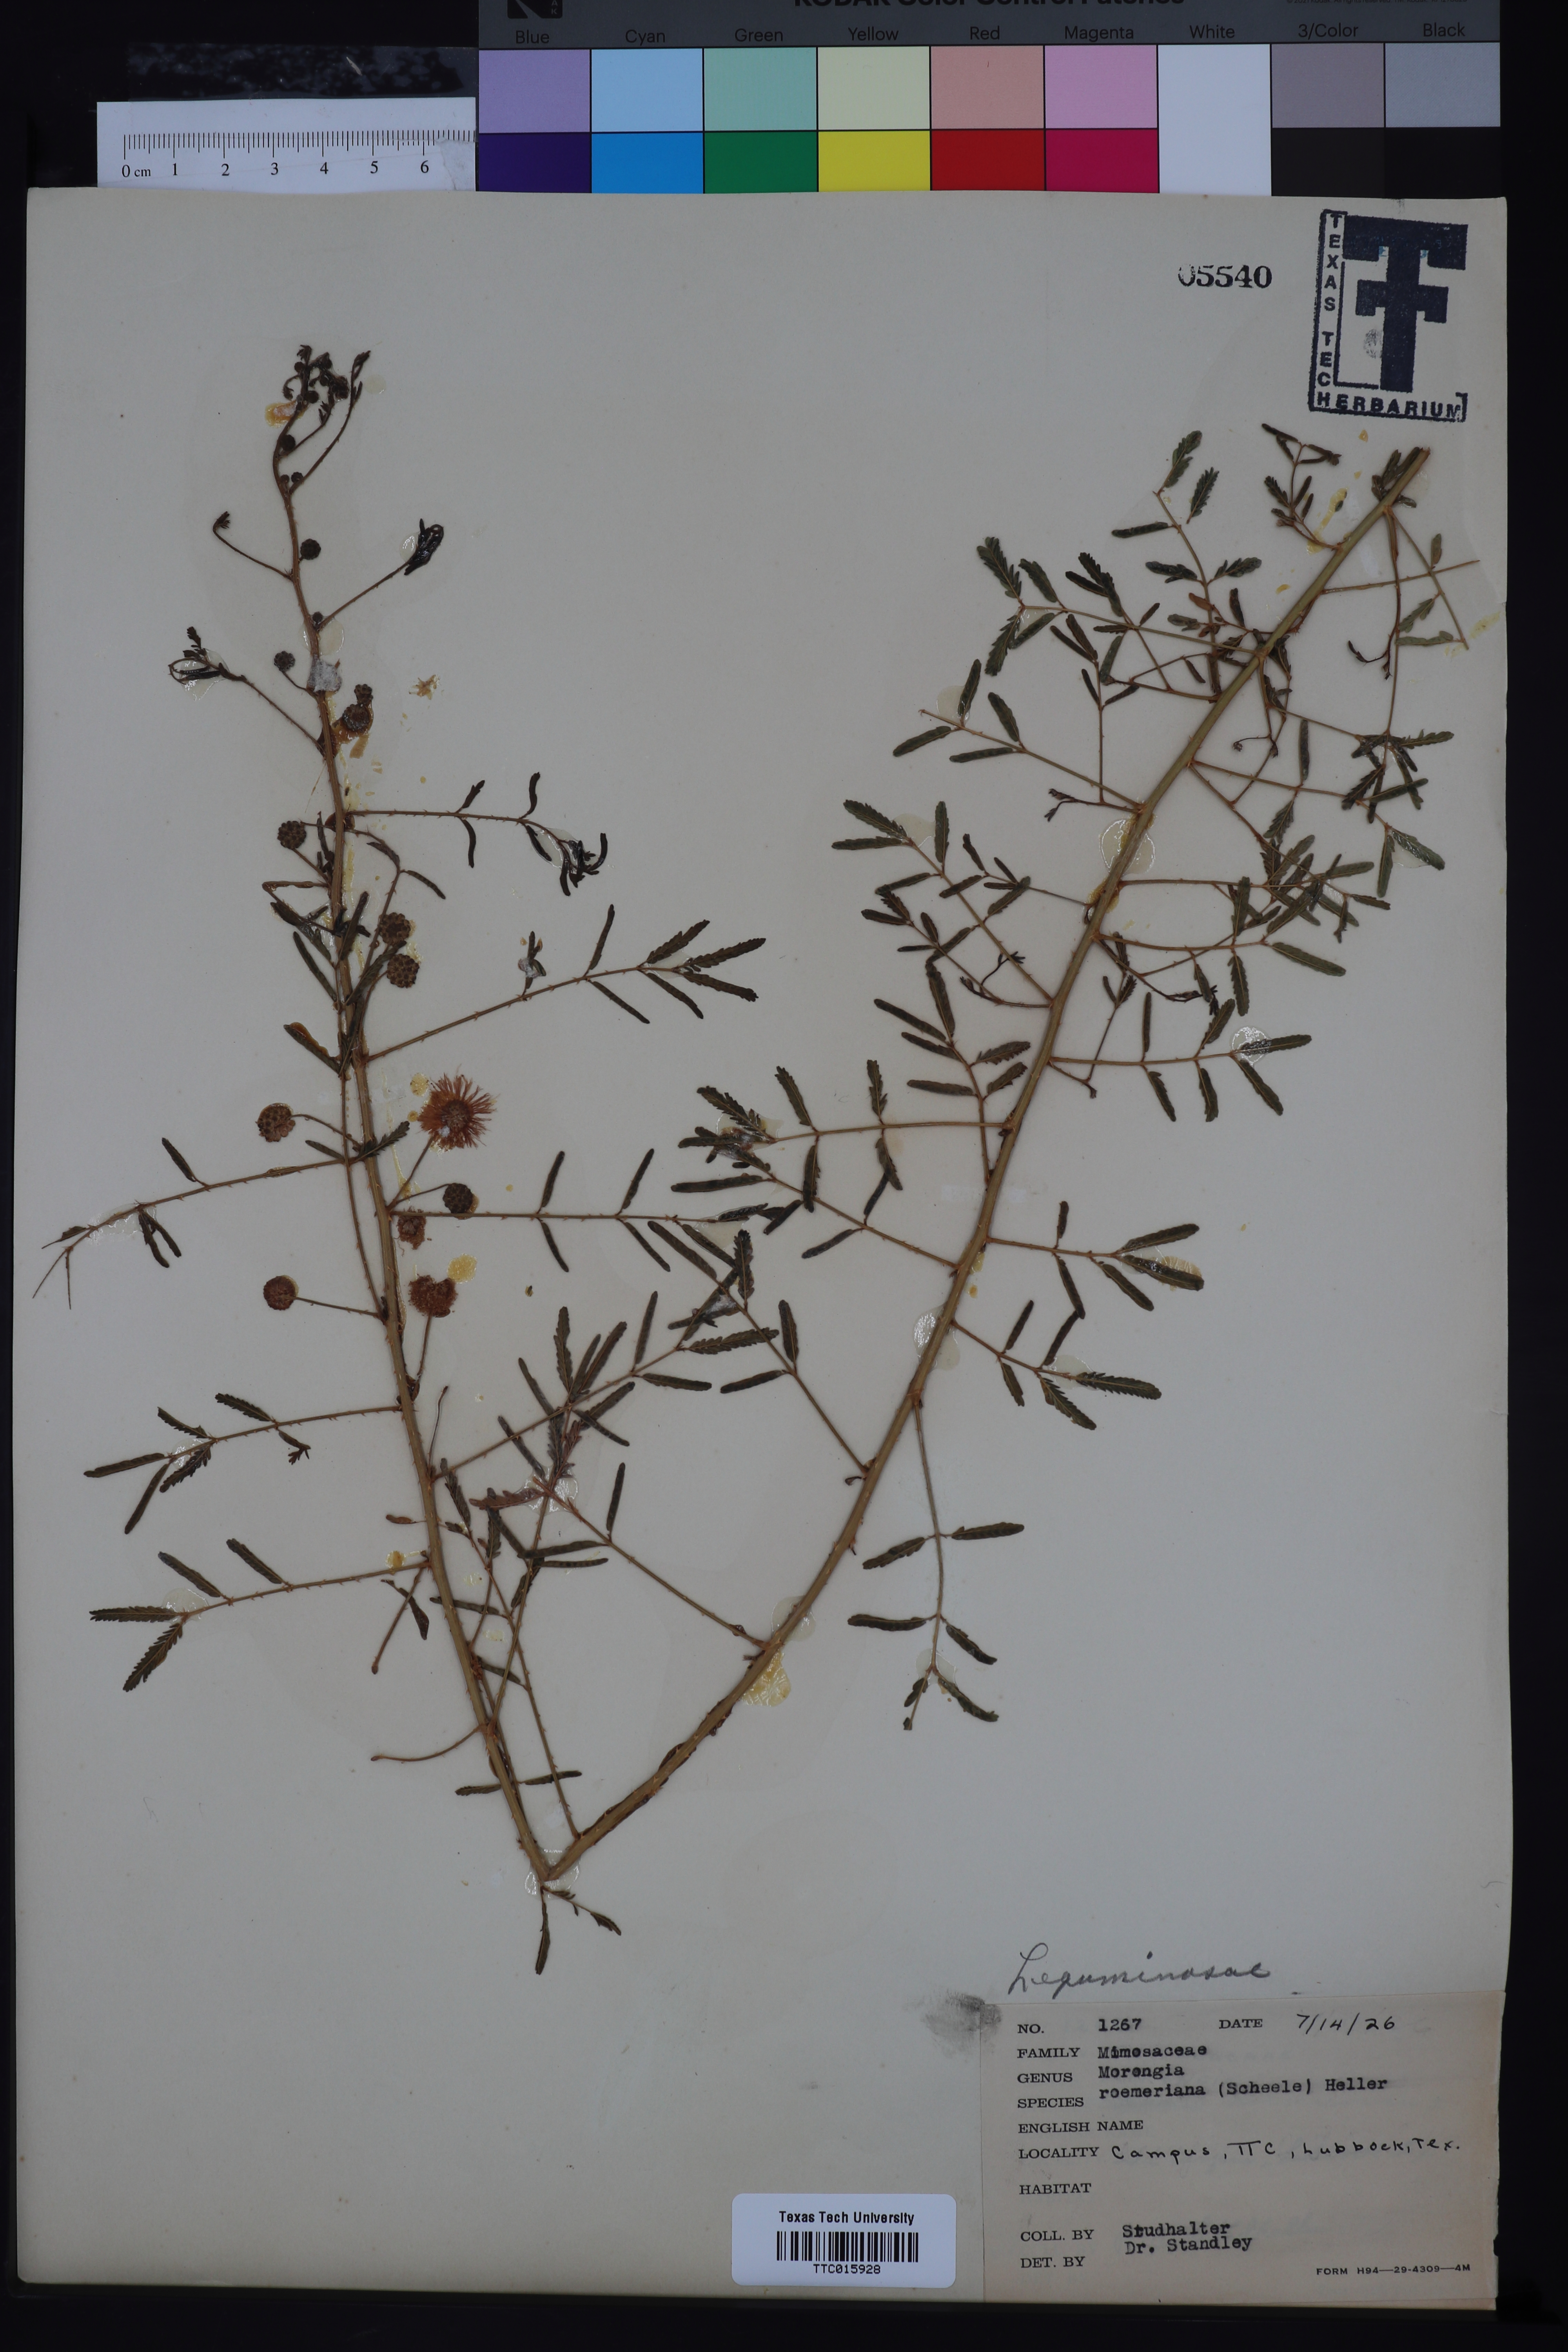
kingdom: Plantae
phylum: Tracheophyta
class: Magnoliopsida
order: Fabales
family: Fabaceae
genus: Mimosa
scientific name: Mimosa quadrivalvis
